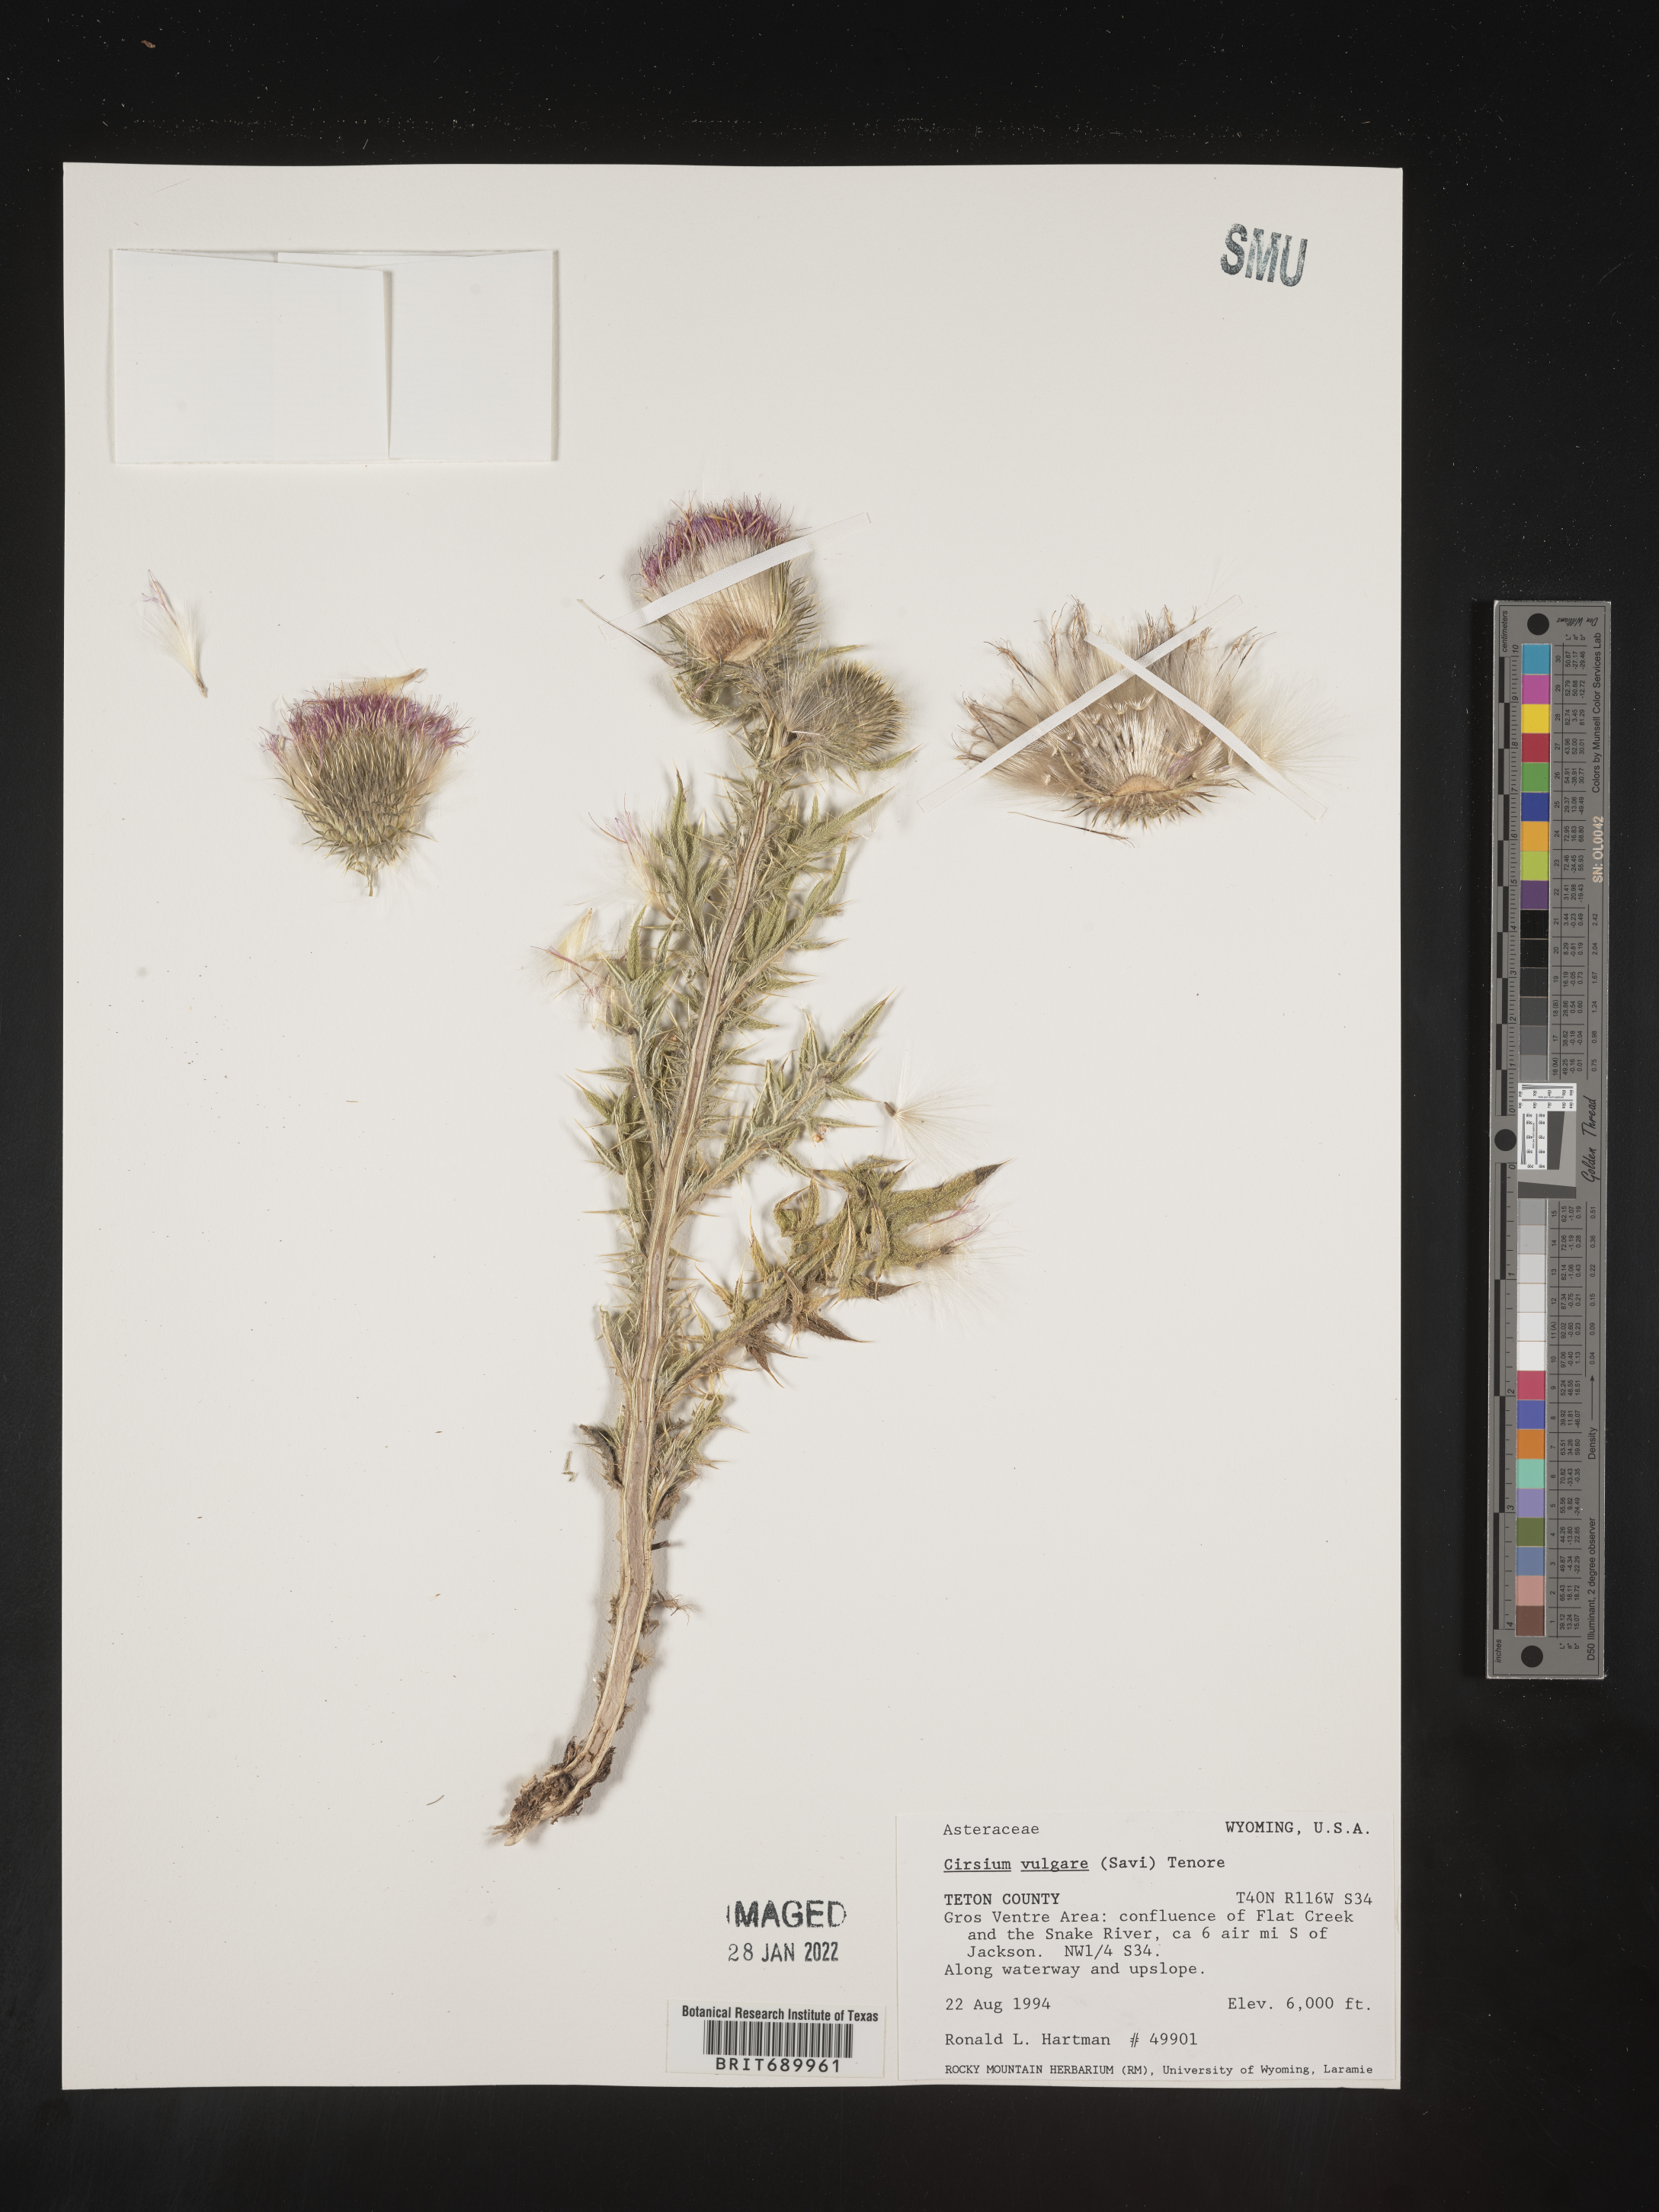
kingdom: Plantae
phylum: Tracheophyta
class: Magnoliopsida
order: Asterales
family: Asteraceae
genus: Cirsium
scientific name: Cirsium vulgare
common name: Bull thistle
